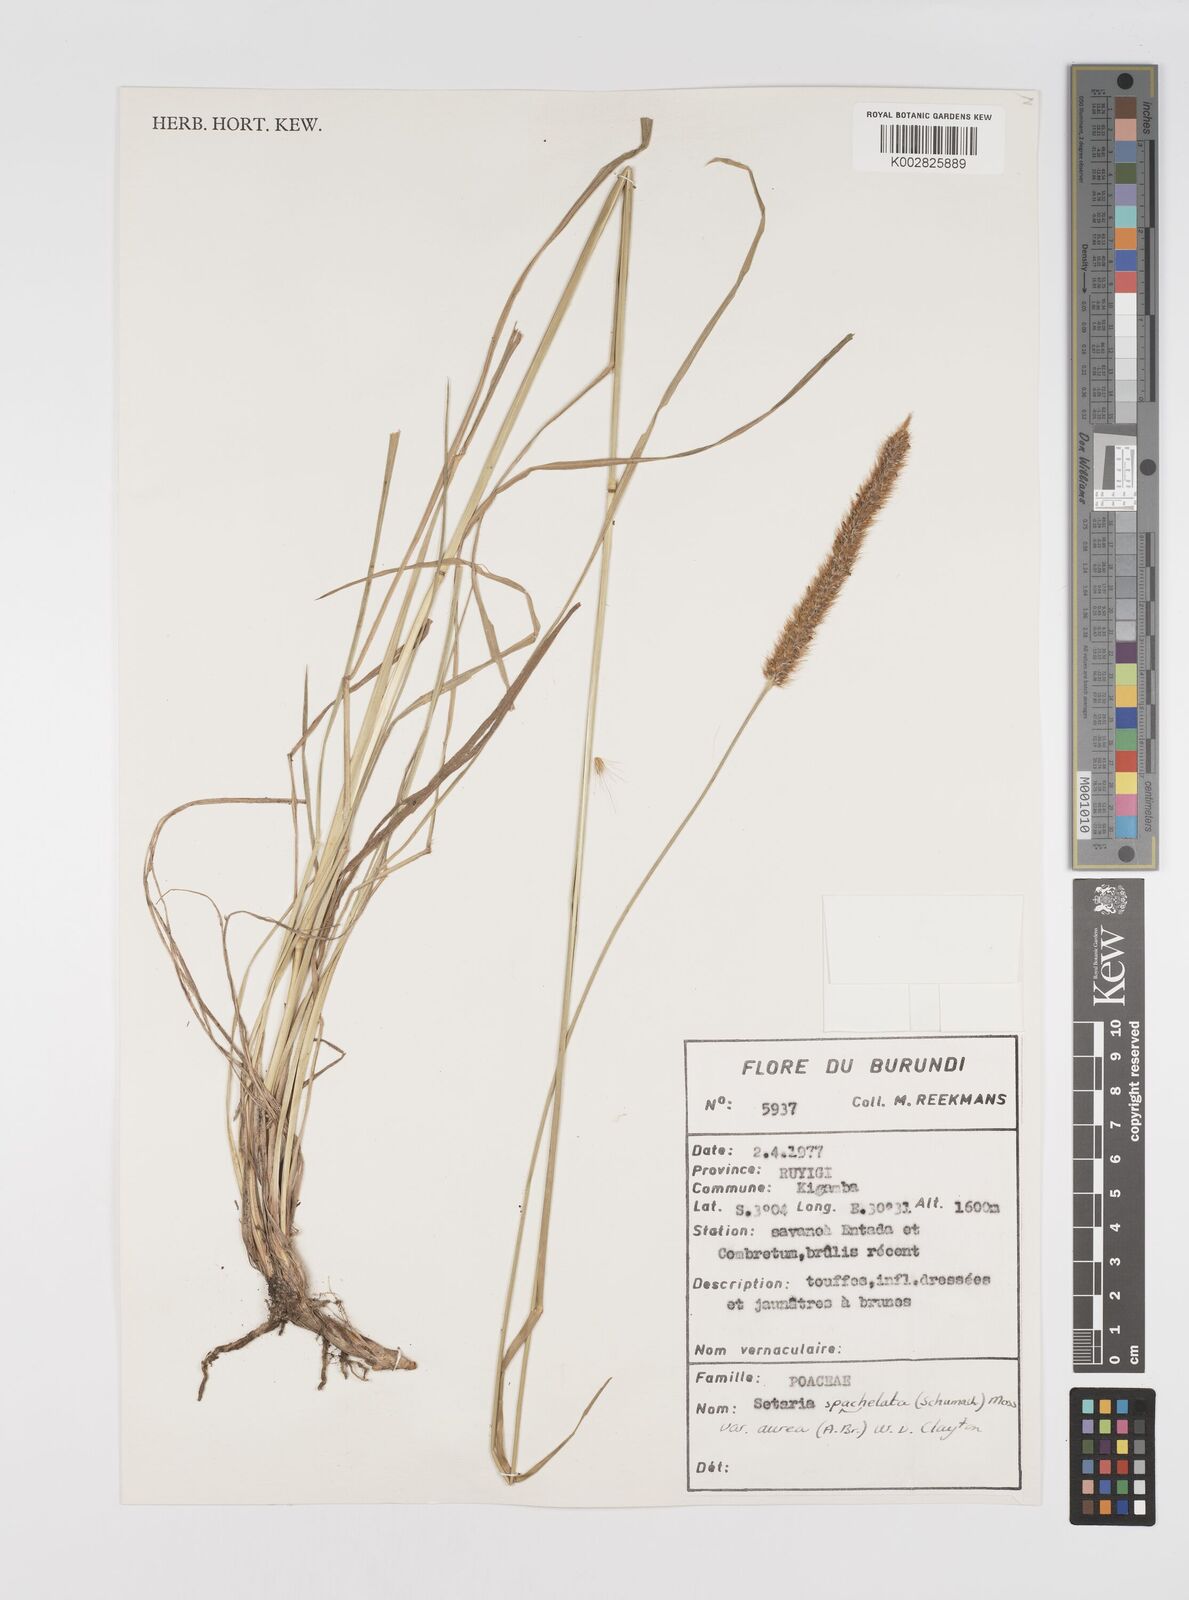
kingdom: Plantae
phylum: Tracheophyta
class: Liliopsida
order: Poales
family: Poaceae
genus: Setaria
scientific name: Setaria sphacelata
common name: African bristlegrass
